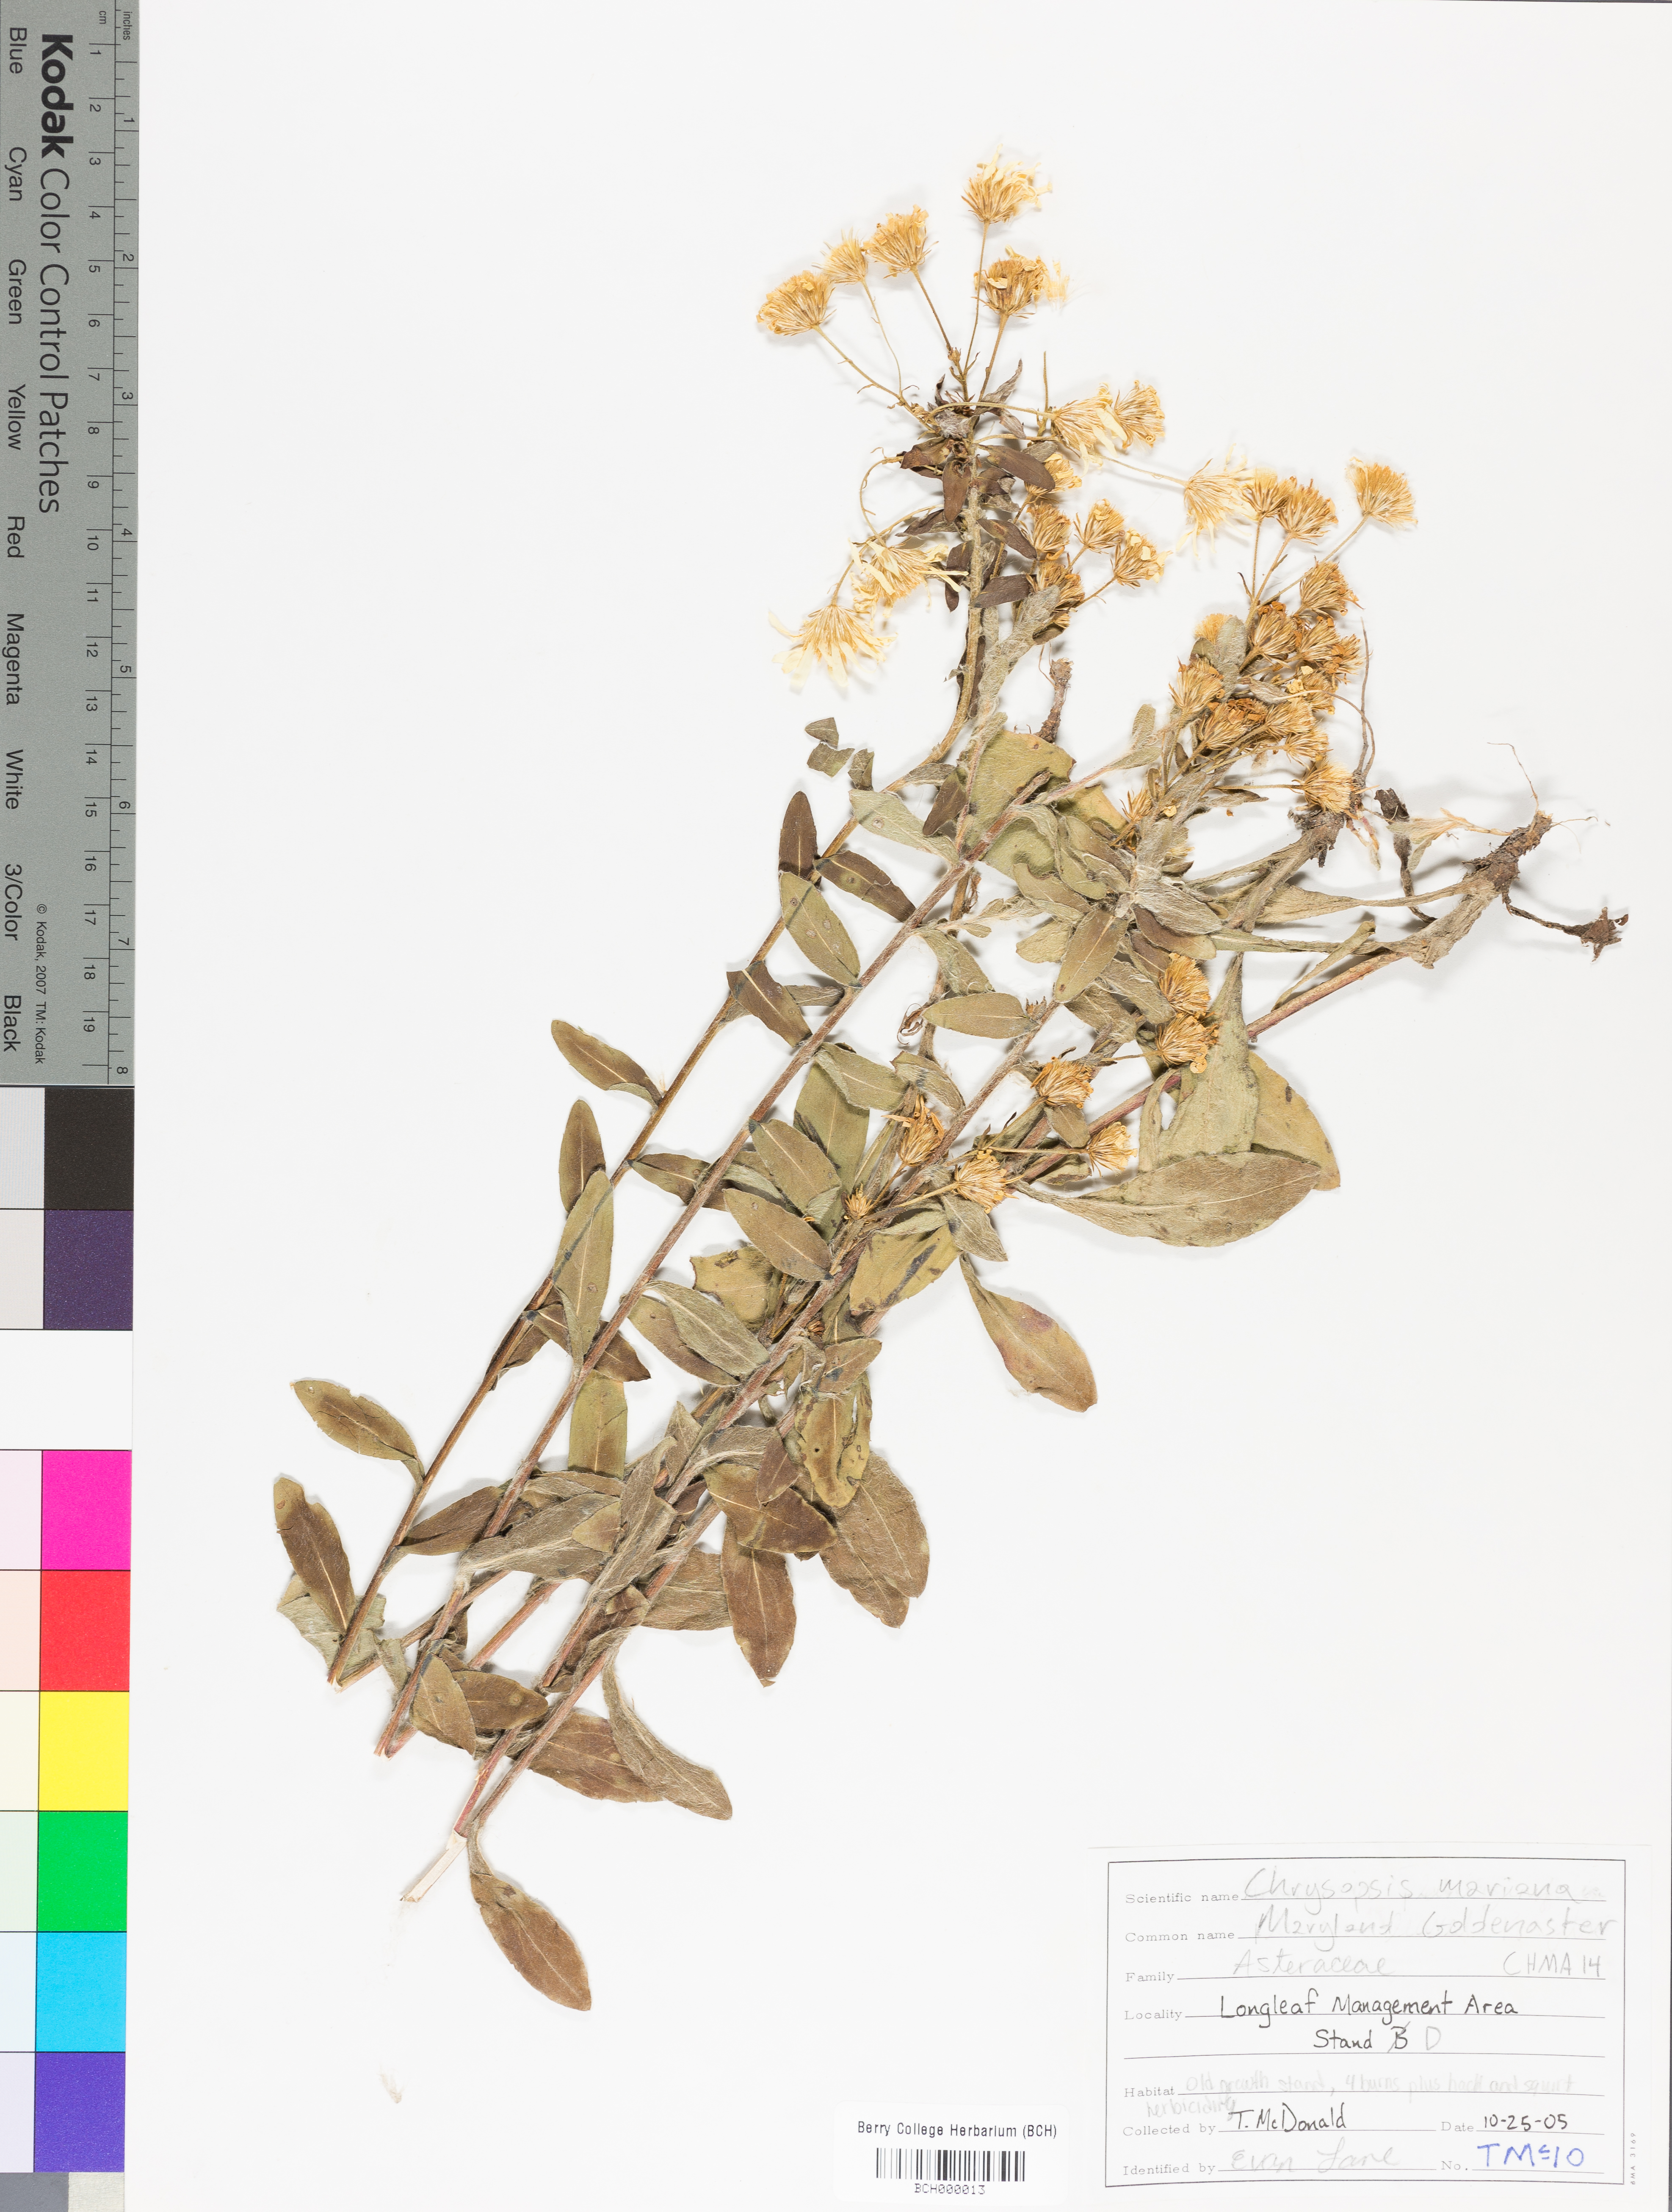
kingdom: Plantae
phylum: Tracheophyta
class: Magnoliopsida
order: Asterales
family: Asteraceae
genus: Chrysopsis
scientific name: Chrysopsis mariana
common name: Maryland golden-aster
